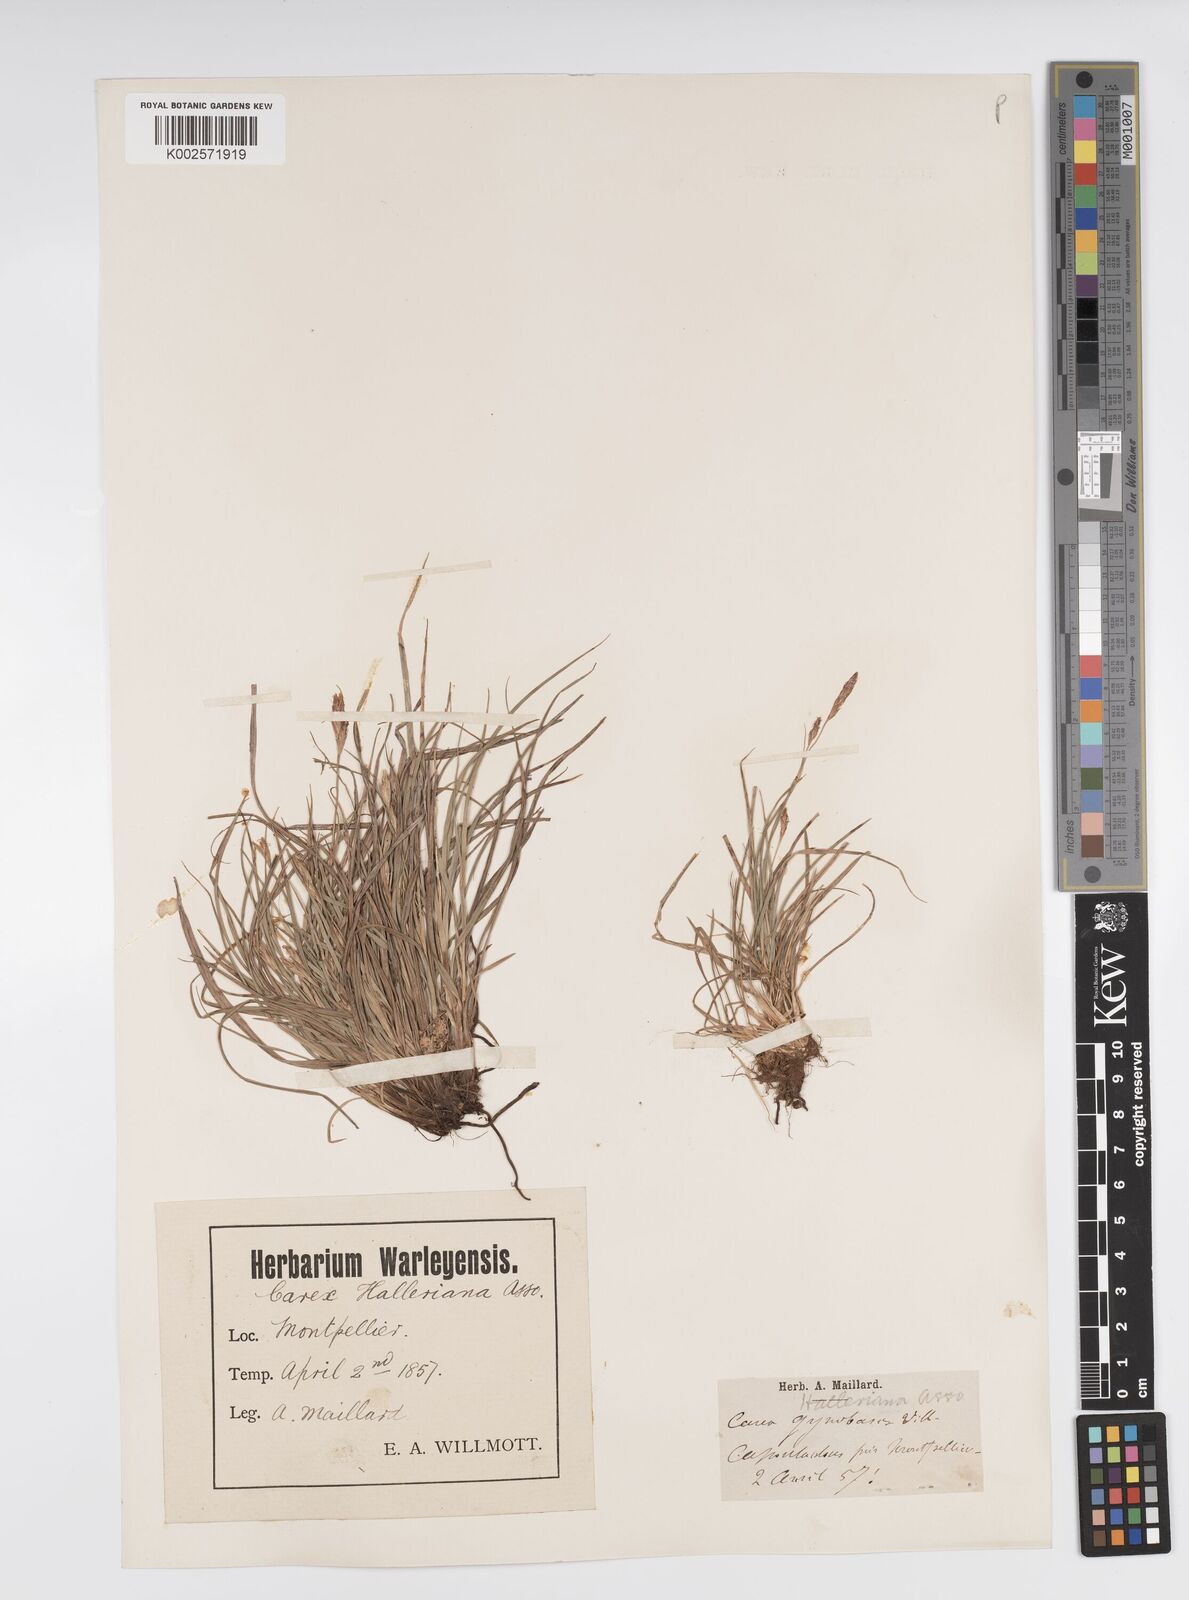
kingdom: Plantae
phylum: Tracheophyta
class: Liliopsida
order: Poales
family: Cyperaceae
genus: Carex
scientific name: Carex halleriana
